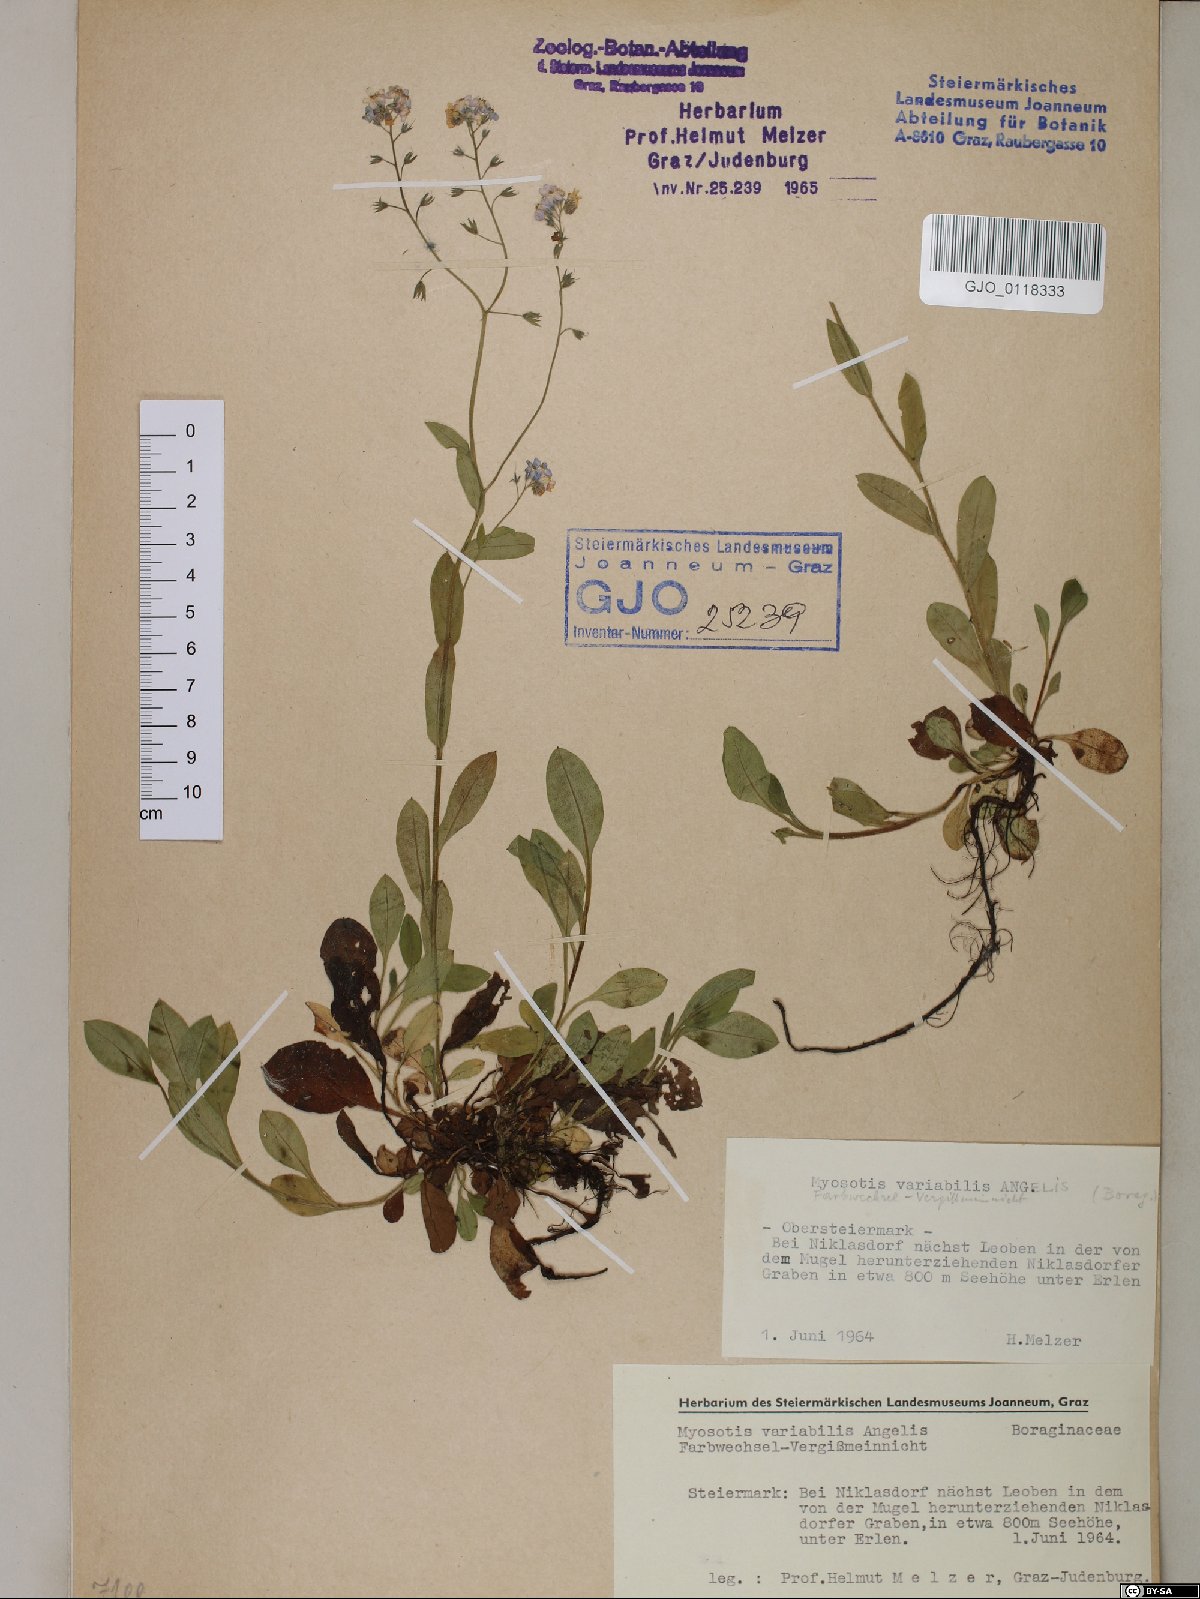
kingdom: Plantae
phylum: Tracheophyta
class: Magnoliopsida
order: Boraginales
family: Boraginaceae
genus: Myosotis
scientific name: Myosotis decumbens
